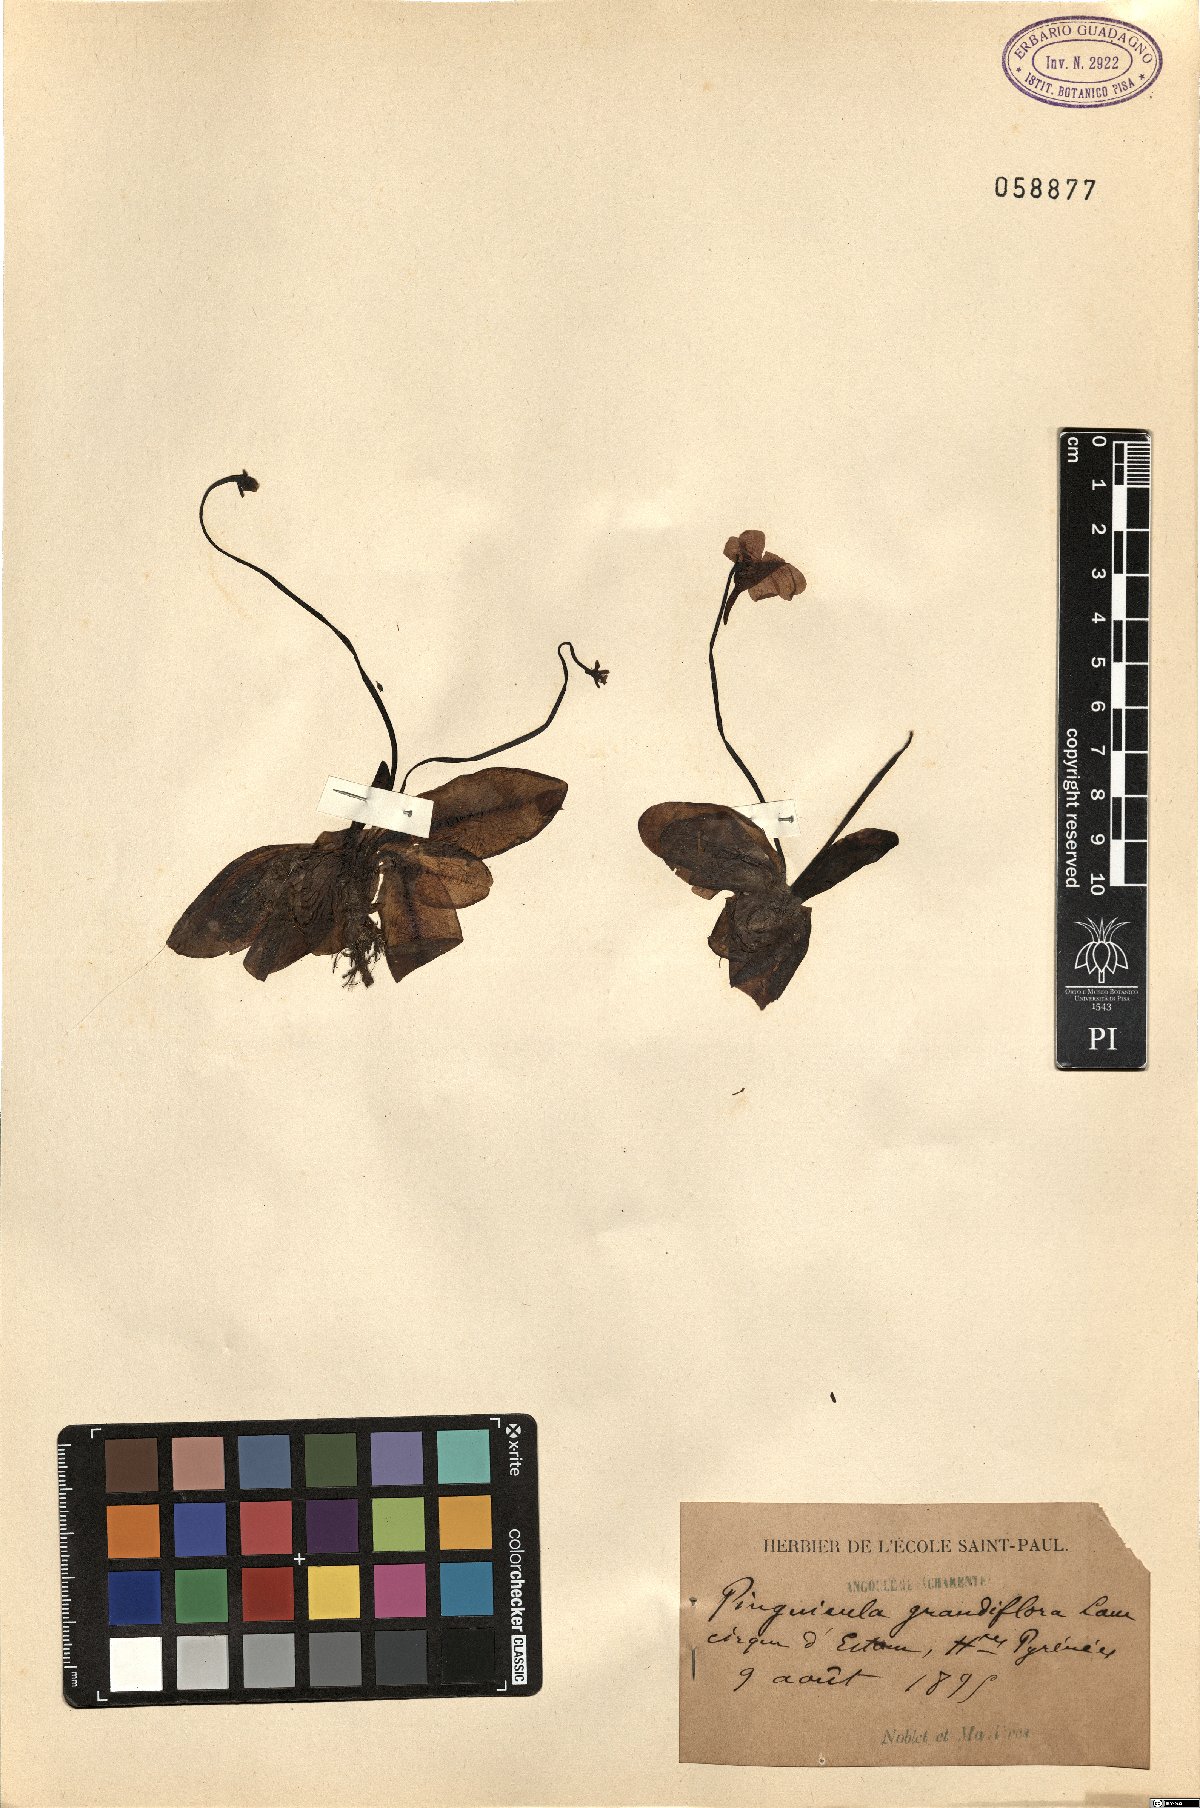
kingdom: Plantae
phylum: Tracheophyta
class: Magnoliopsida
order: Lamiales
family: Lentibulariaceae
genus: Pinguicula
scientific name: Pinguicula grandiflora
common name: Large-flowered butterwort
